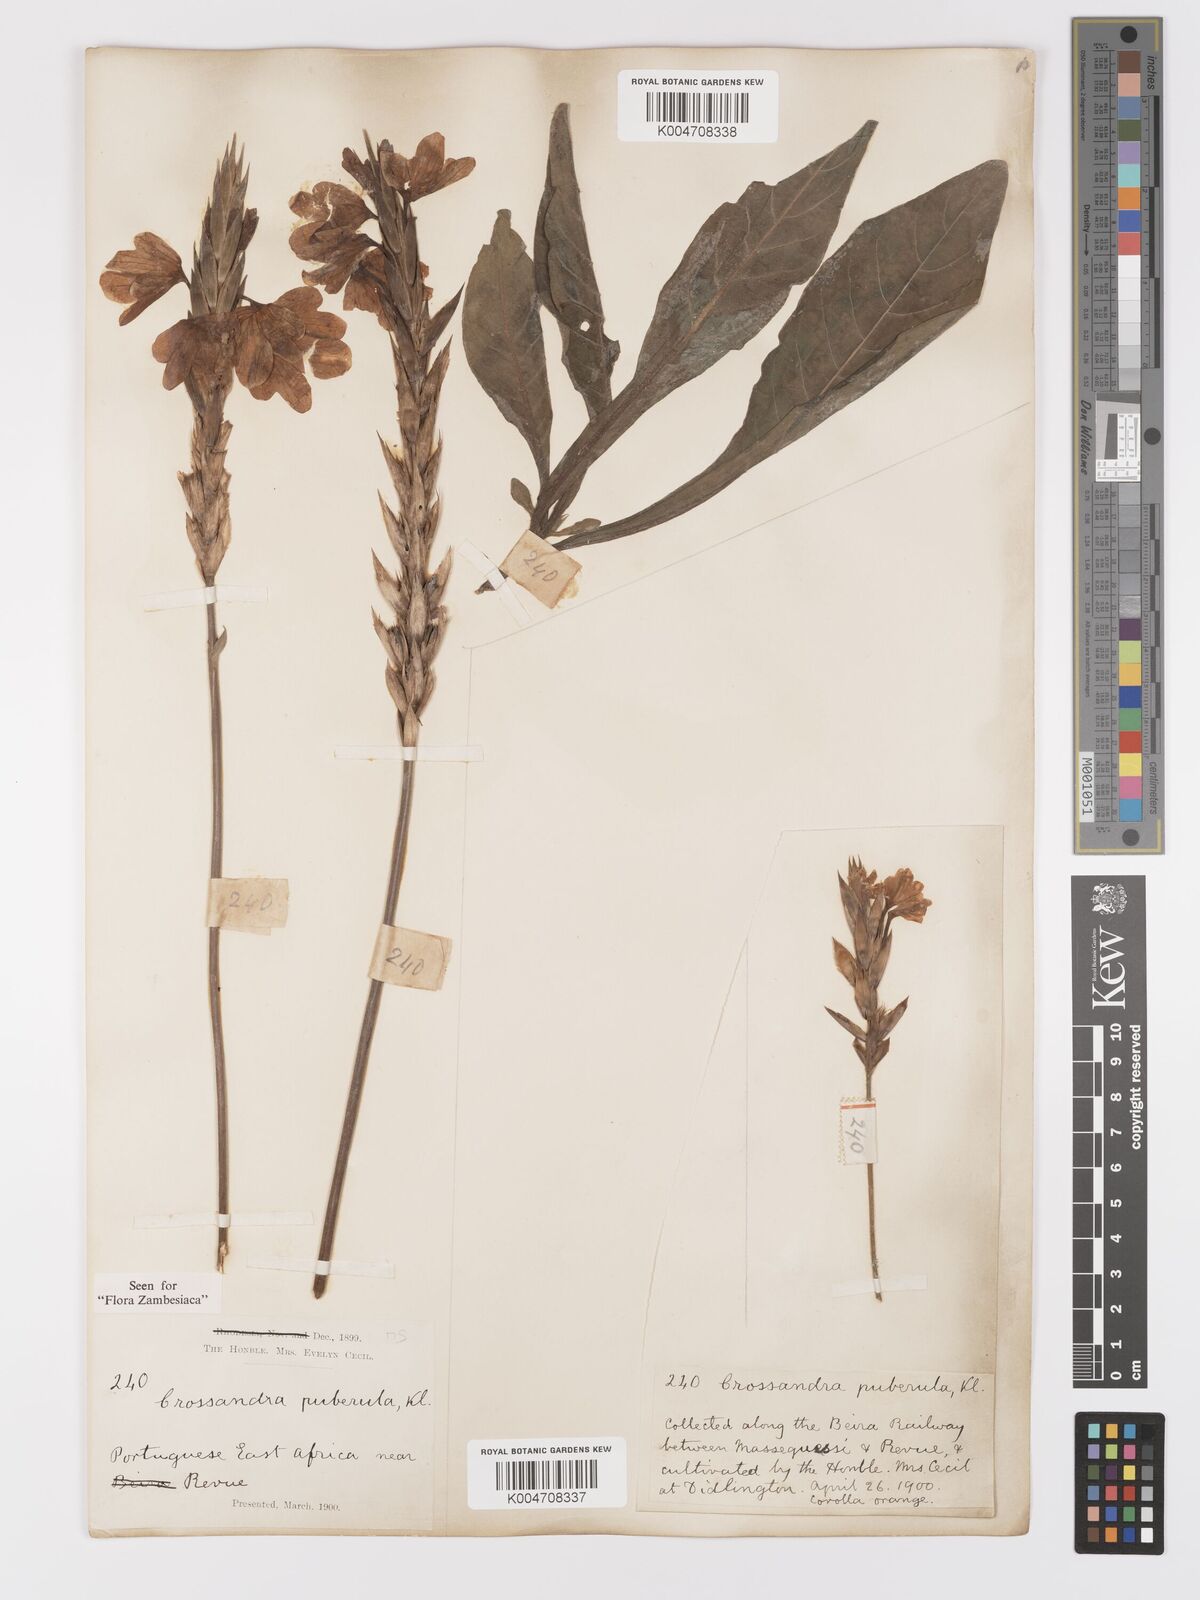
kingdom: Plantae
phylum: Tracheophyta
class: Magnoliopsida
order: Lamiales
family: Acanthaceae
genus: Crossandra
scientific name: Crossandra puberula
